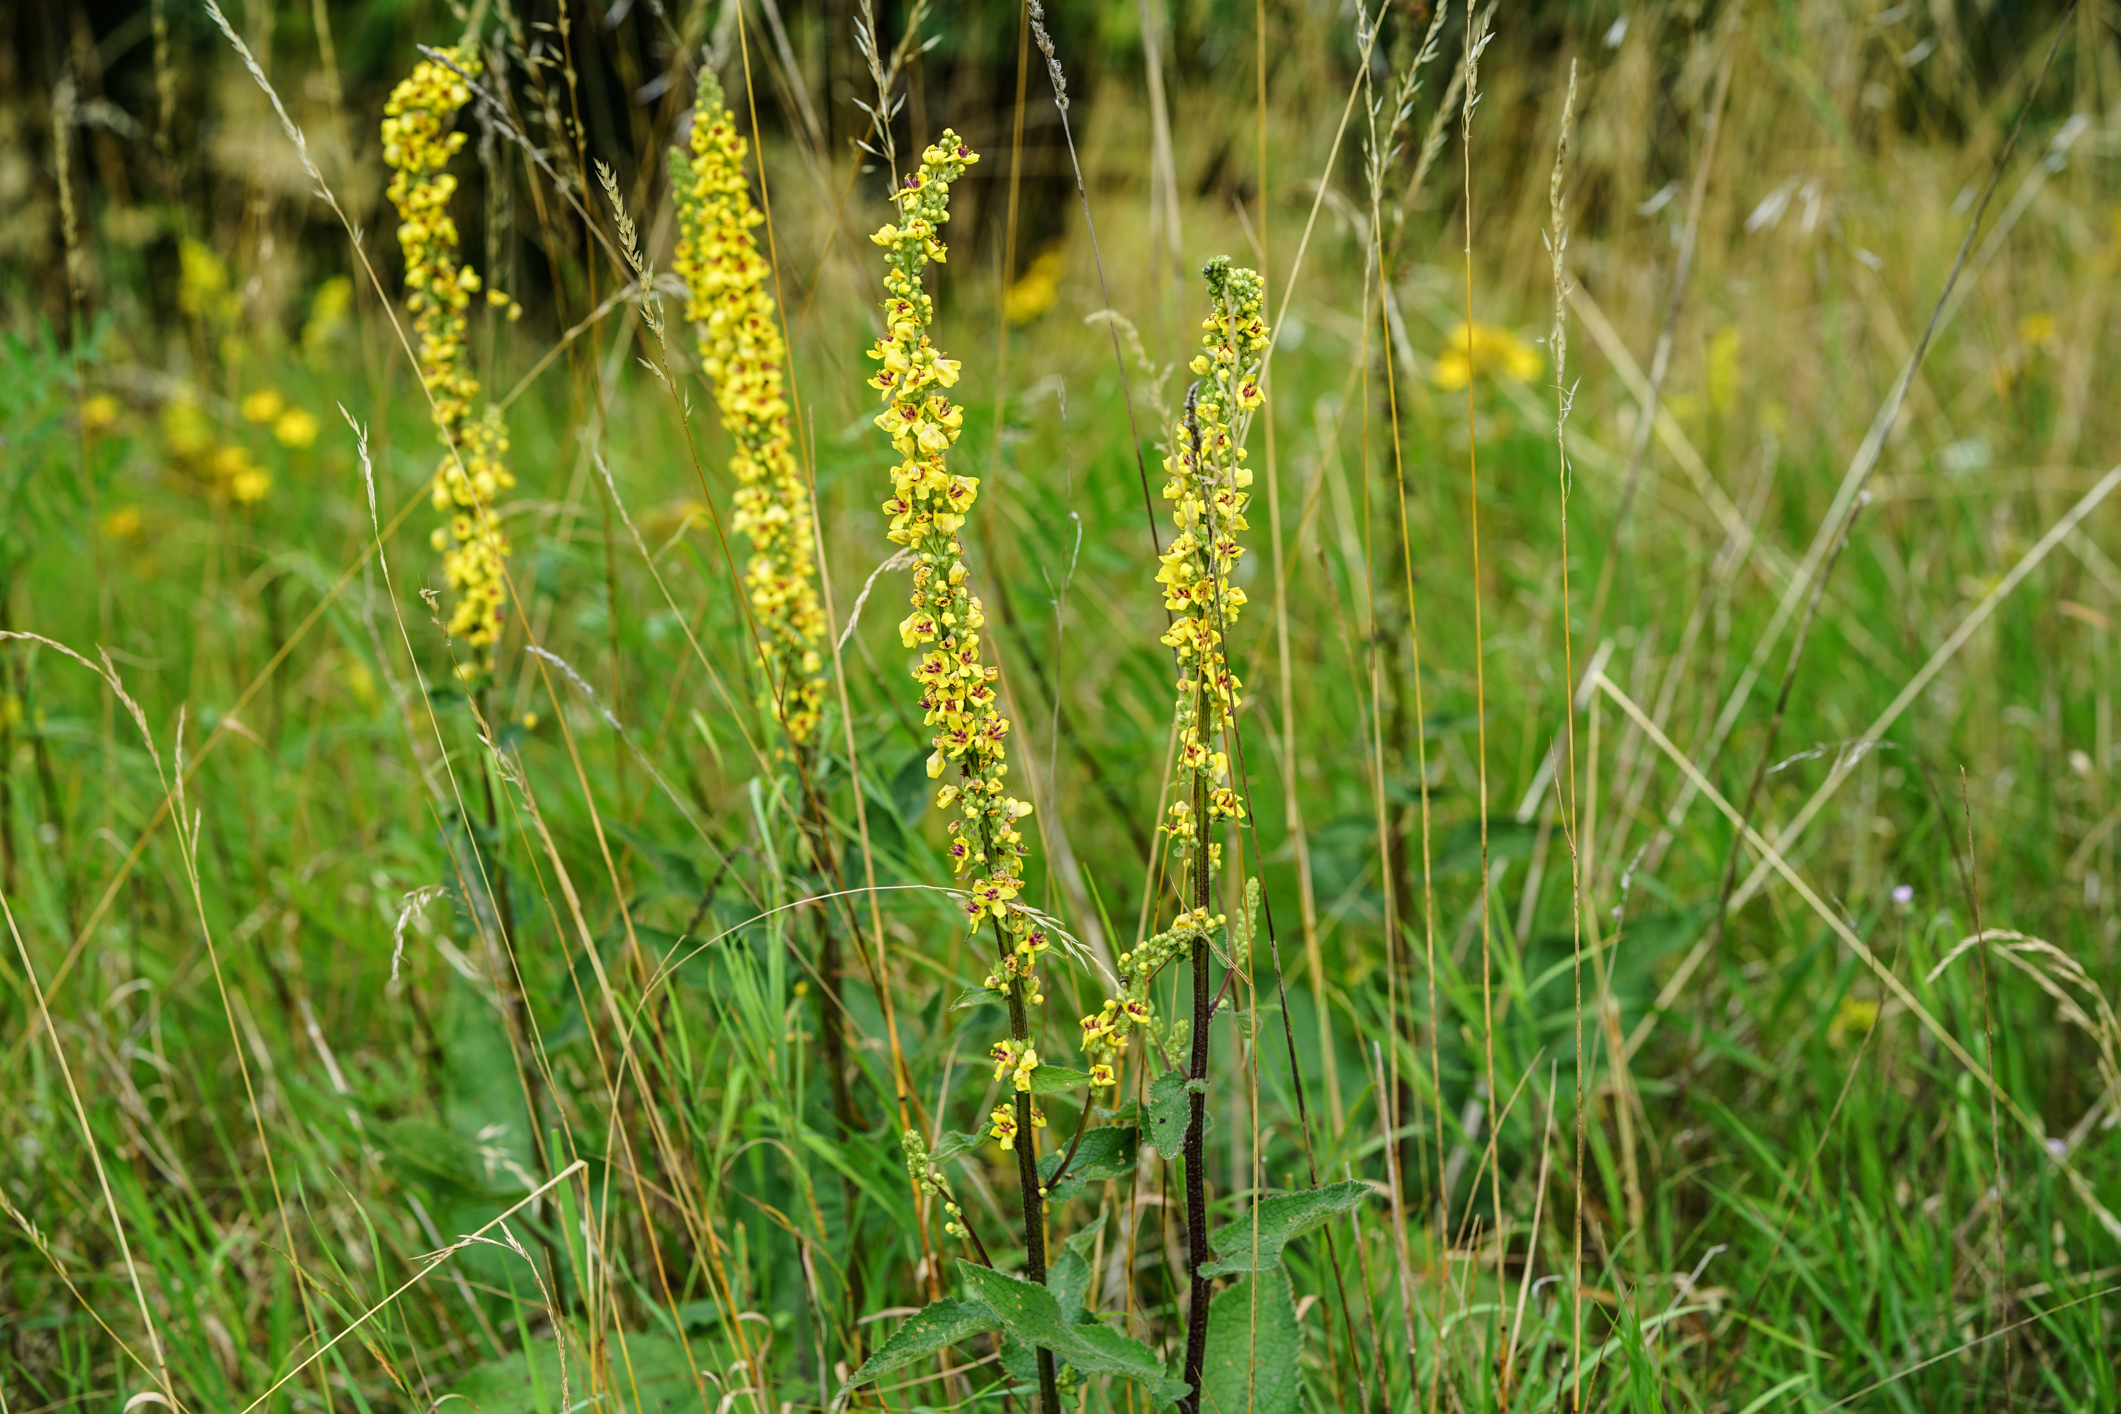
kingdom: Plantae
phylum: Tracheophyta
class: Magnoliopsida
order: Lamiales
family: Scrophulariaceae
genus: Verbascum
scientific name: Verbascum nigrum
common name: Dark mullein
